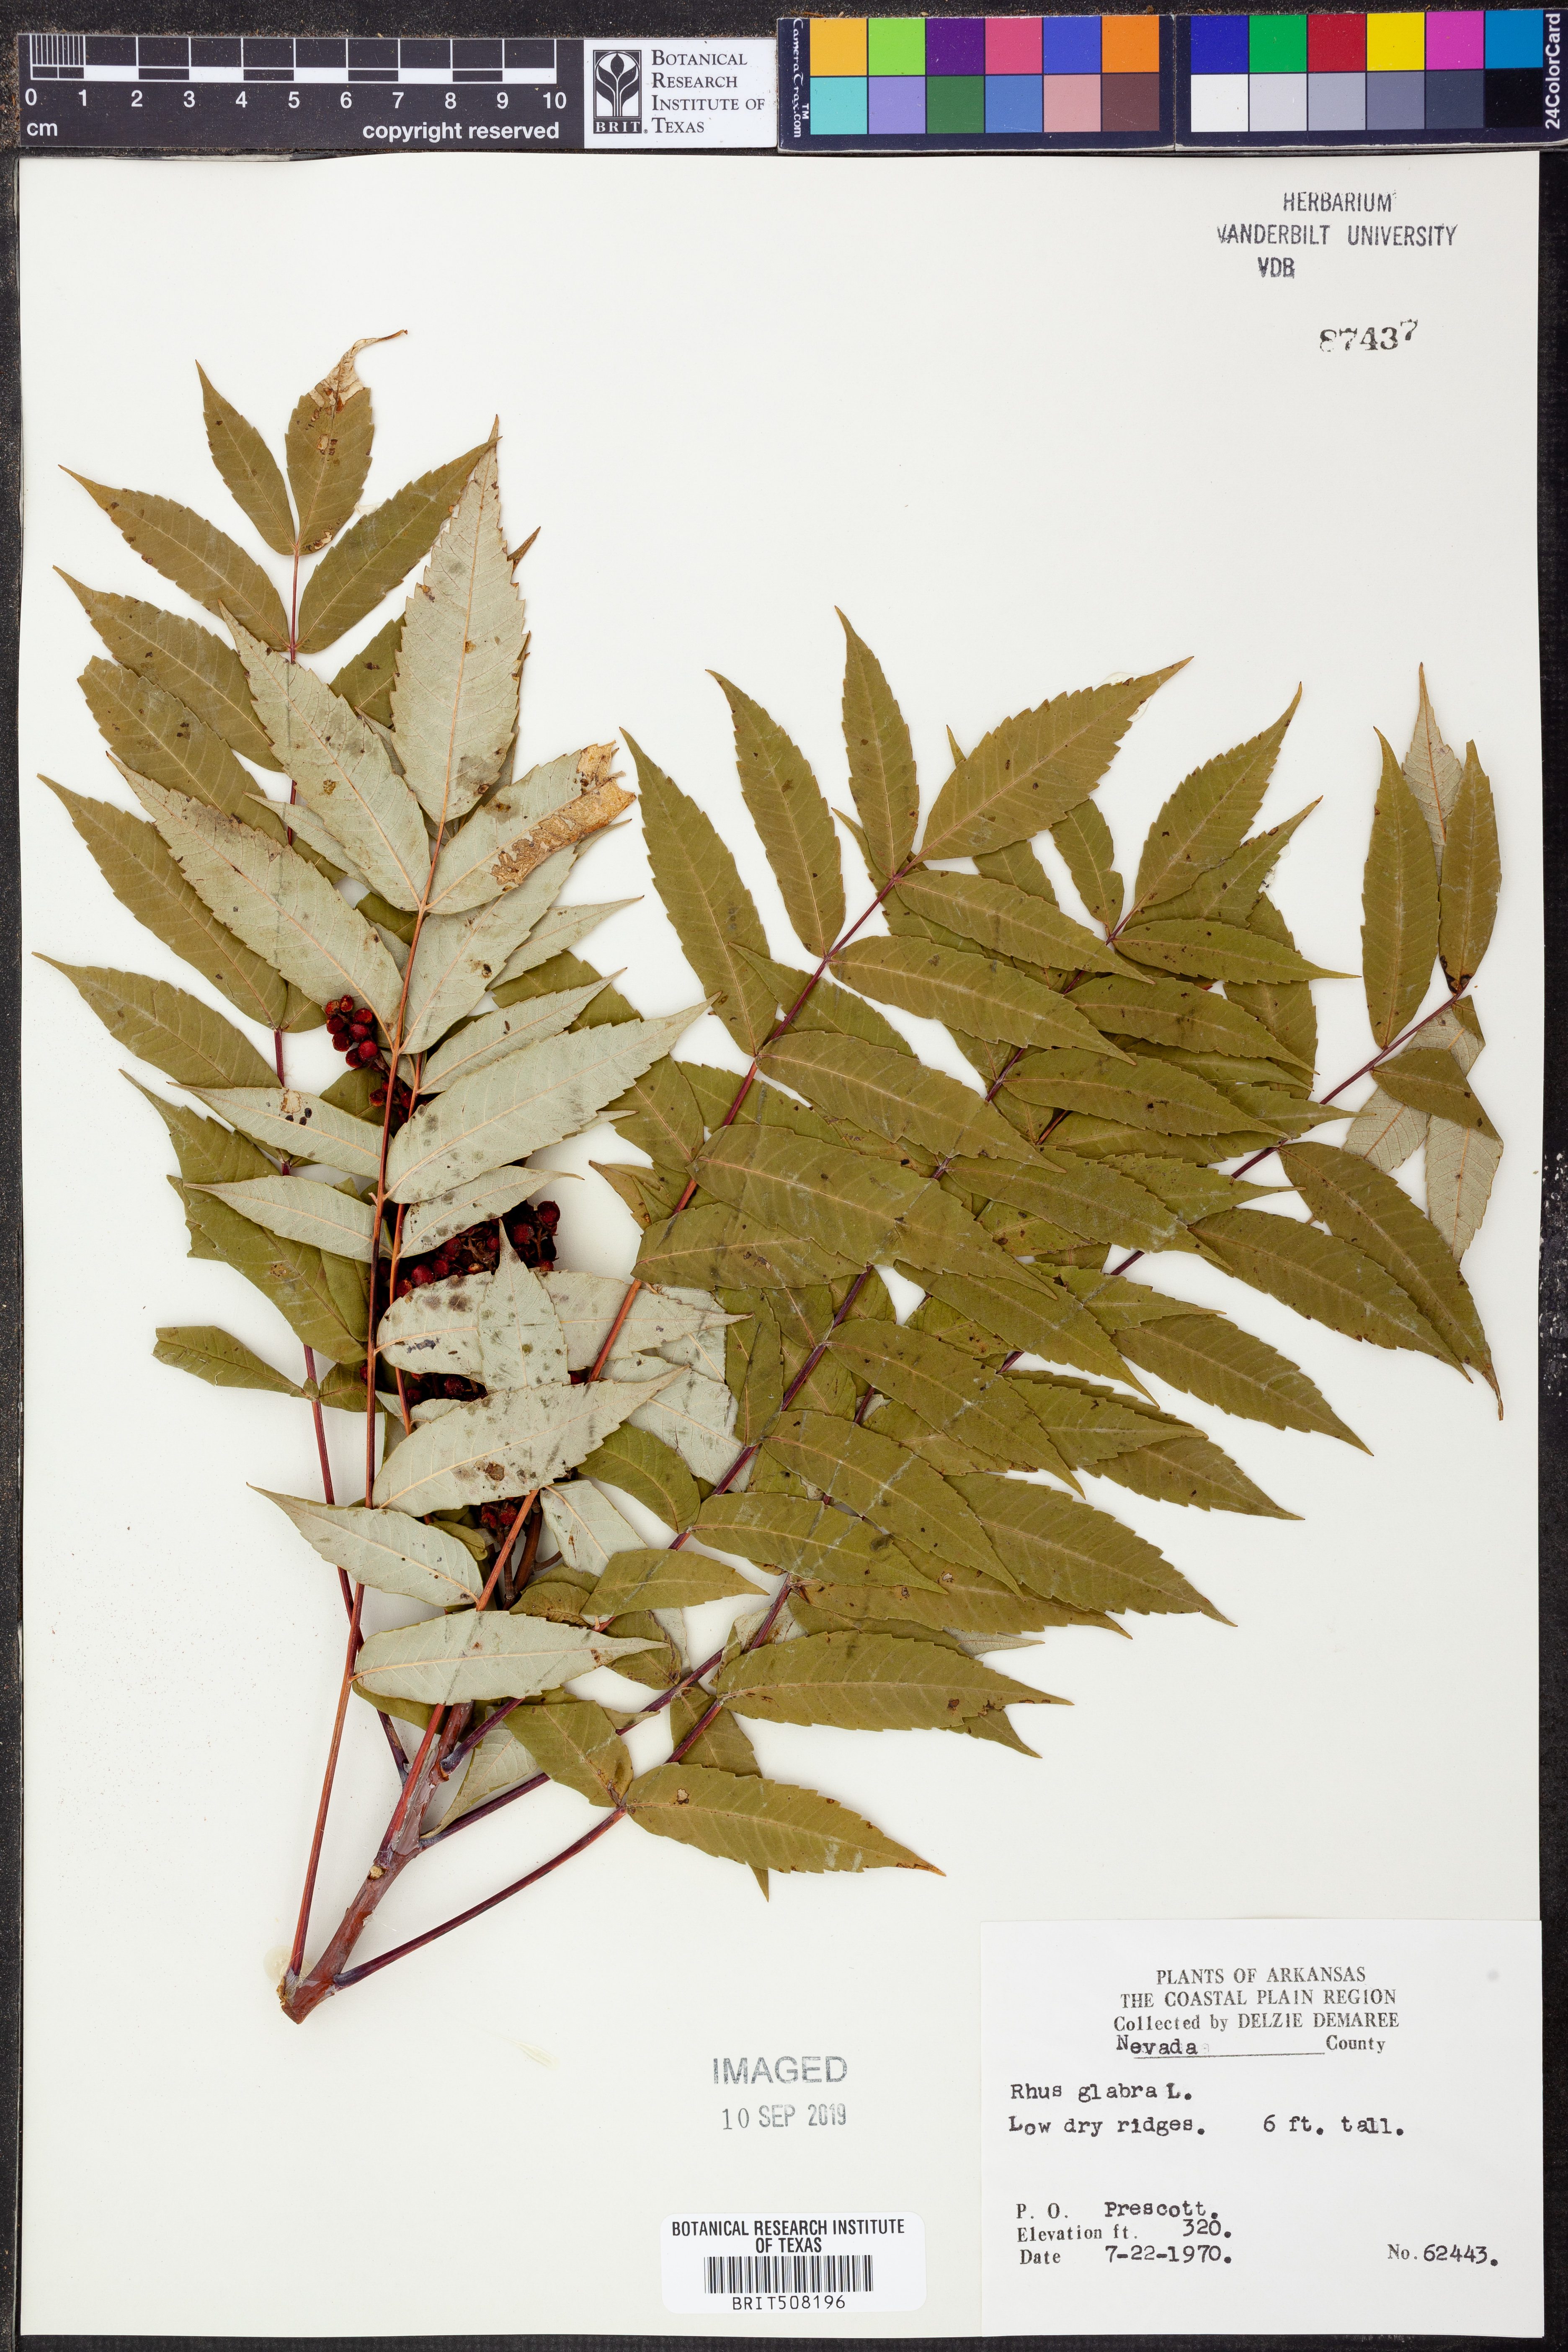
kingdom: Plantae
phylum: Tracheophyta
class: Magnoliopsida
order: Sapindales
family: Anacardiaceae
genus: Rhus
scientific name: Rhus glabra
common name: Scarlet sumac
